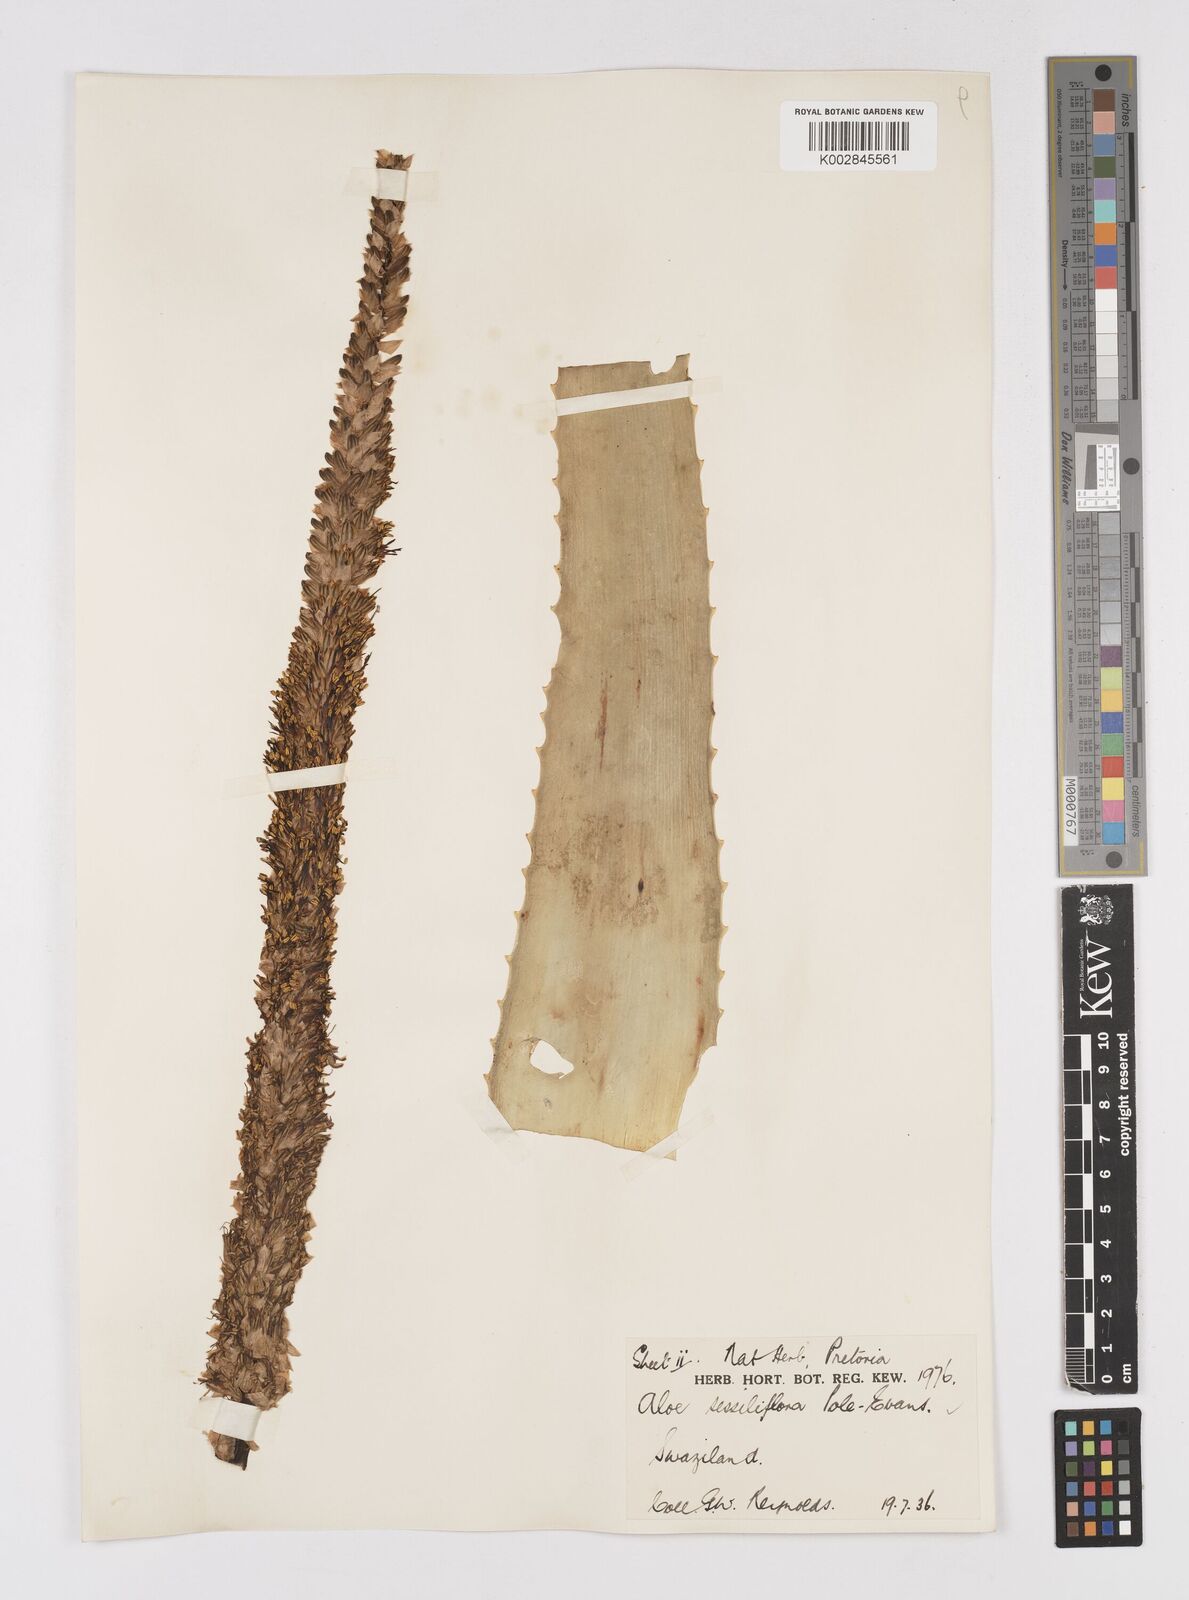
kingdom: Plantae
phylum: Tracheophyta
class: Liliopsida
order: Asparagales
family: Asphodelaceae
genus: Aloe
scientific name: Aloe spicata
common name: Gazaland aloe
